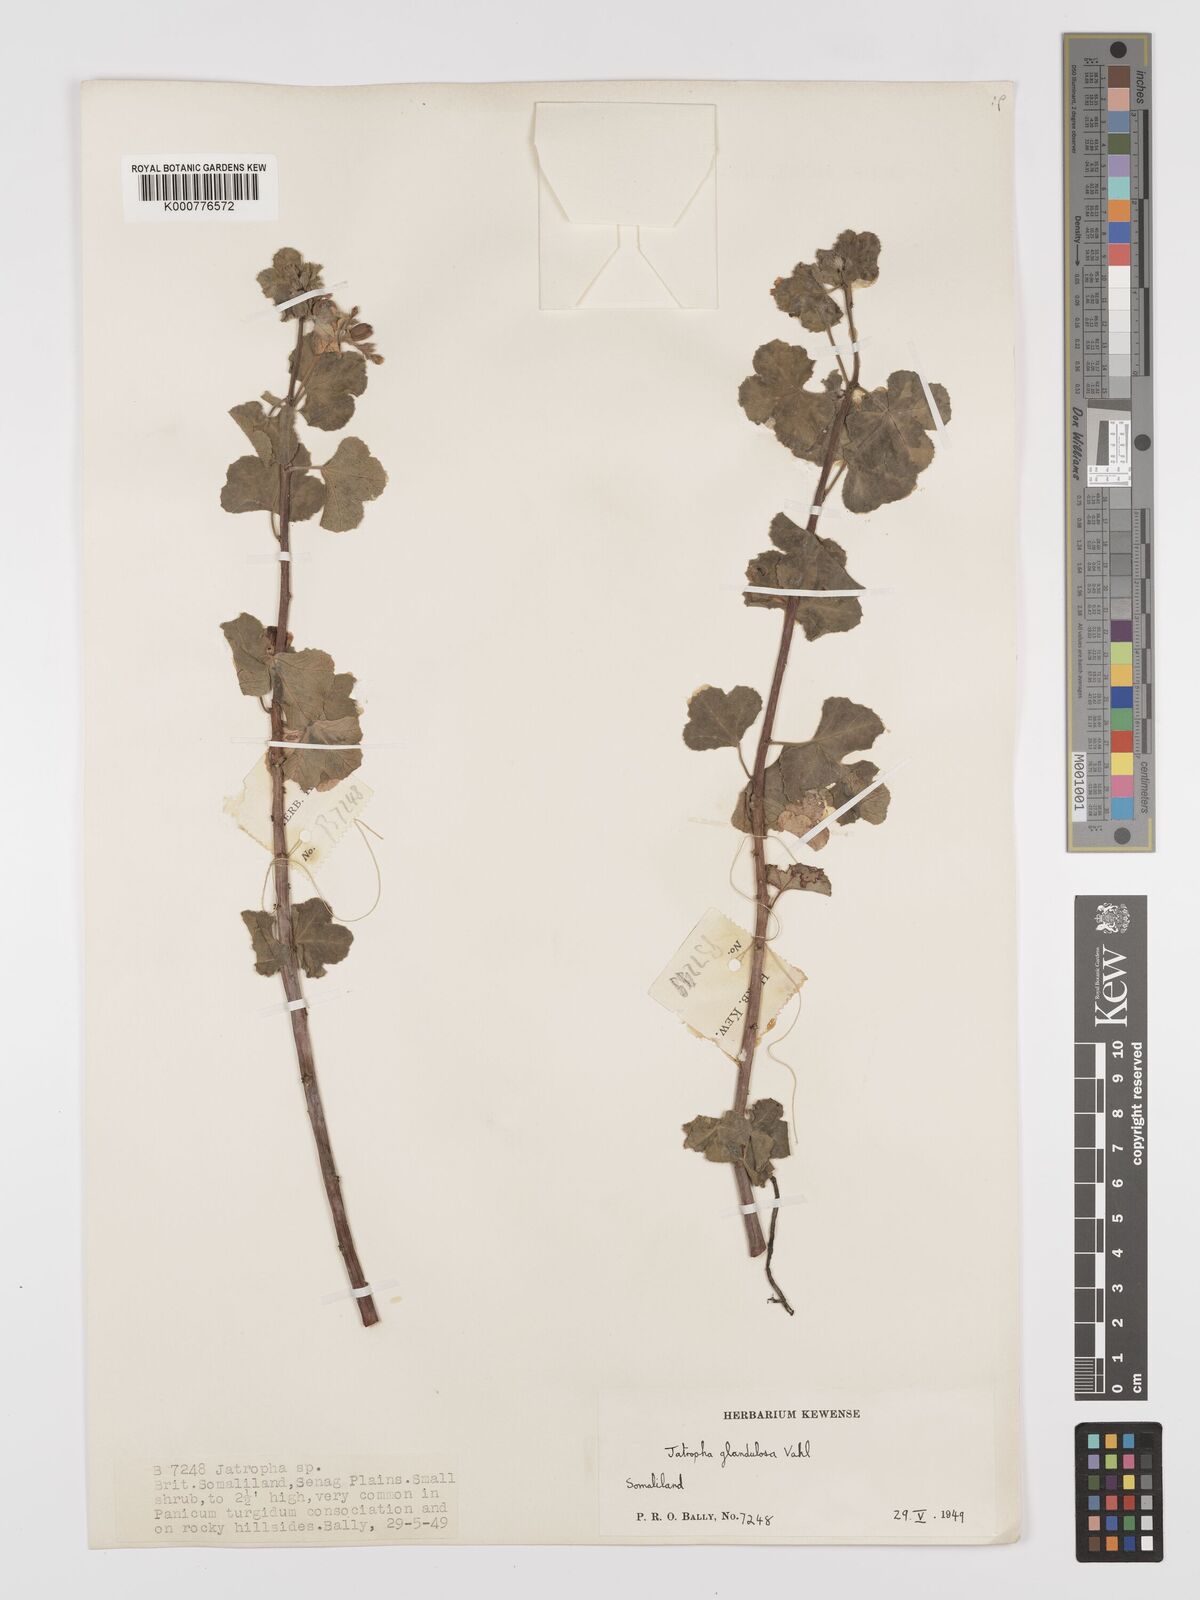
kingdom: Plantae
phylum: Tracheophyta
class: Magnoliopsida
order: Malpighiales
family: Euphorbiaceae
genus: Jatropha
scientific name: Jatropha pelargoniifolia
